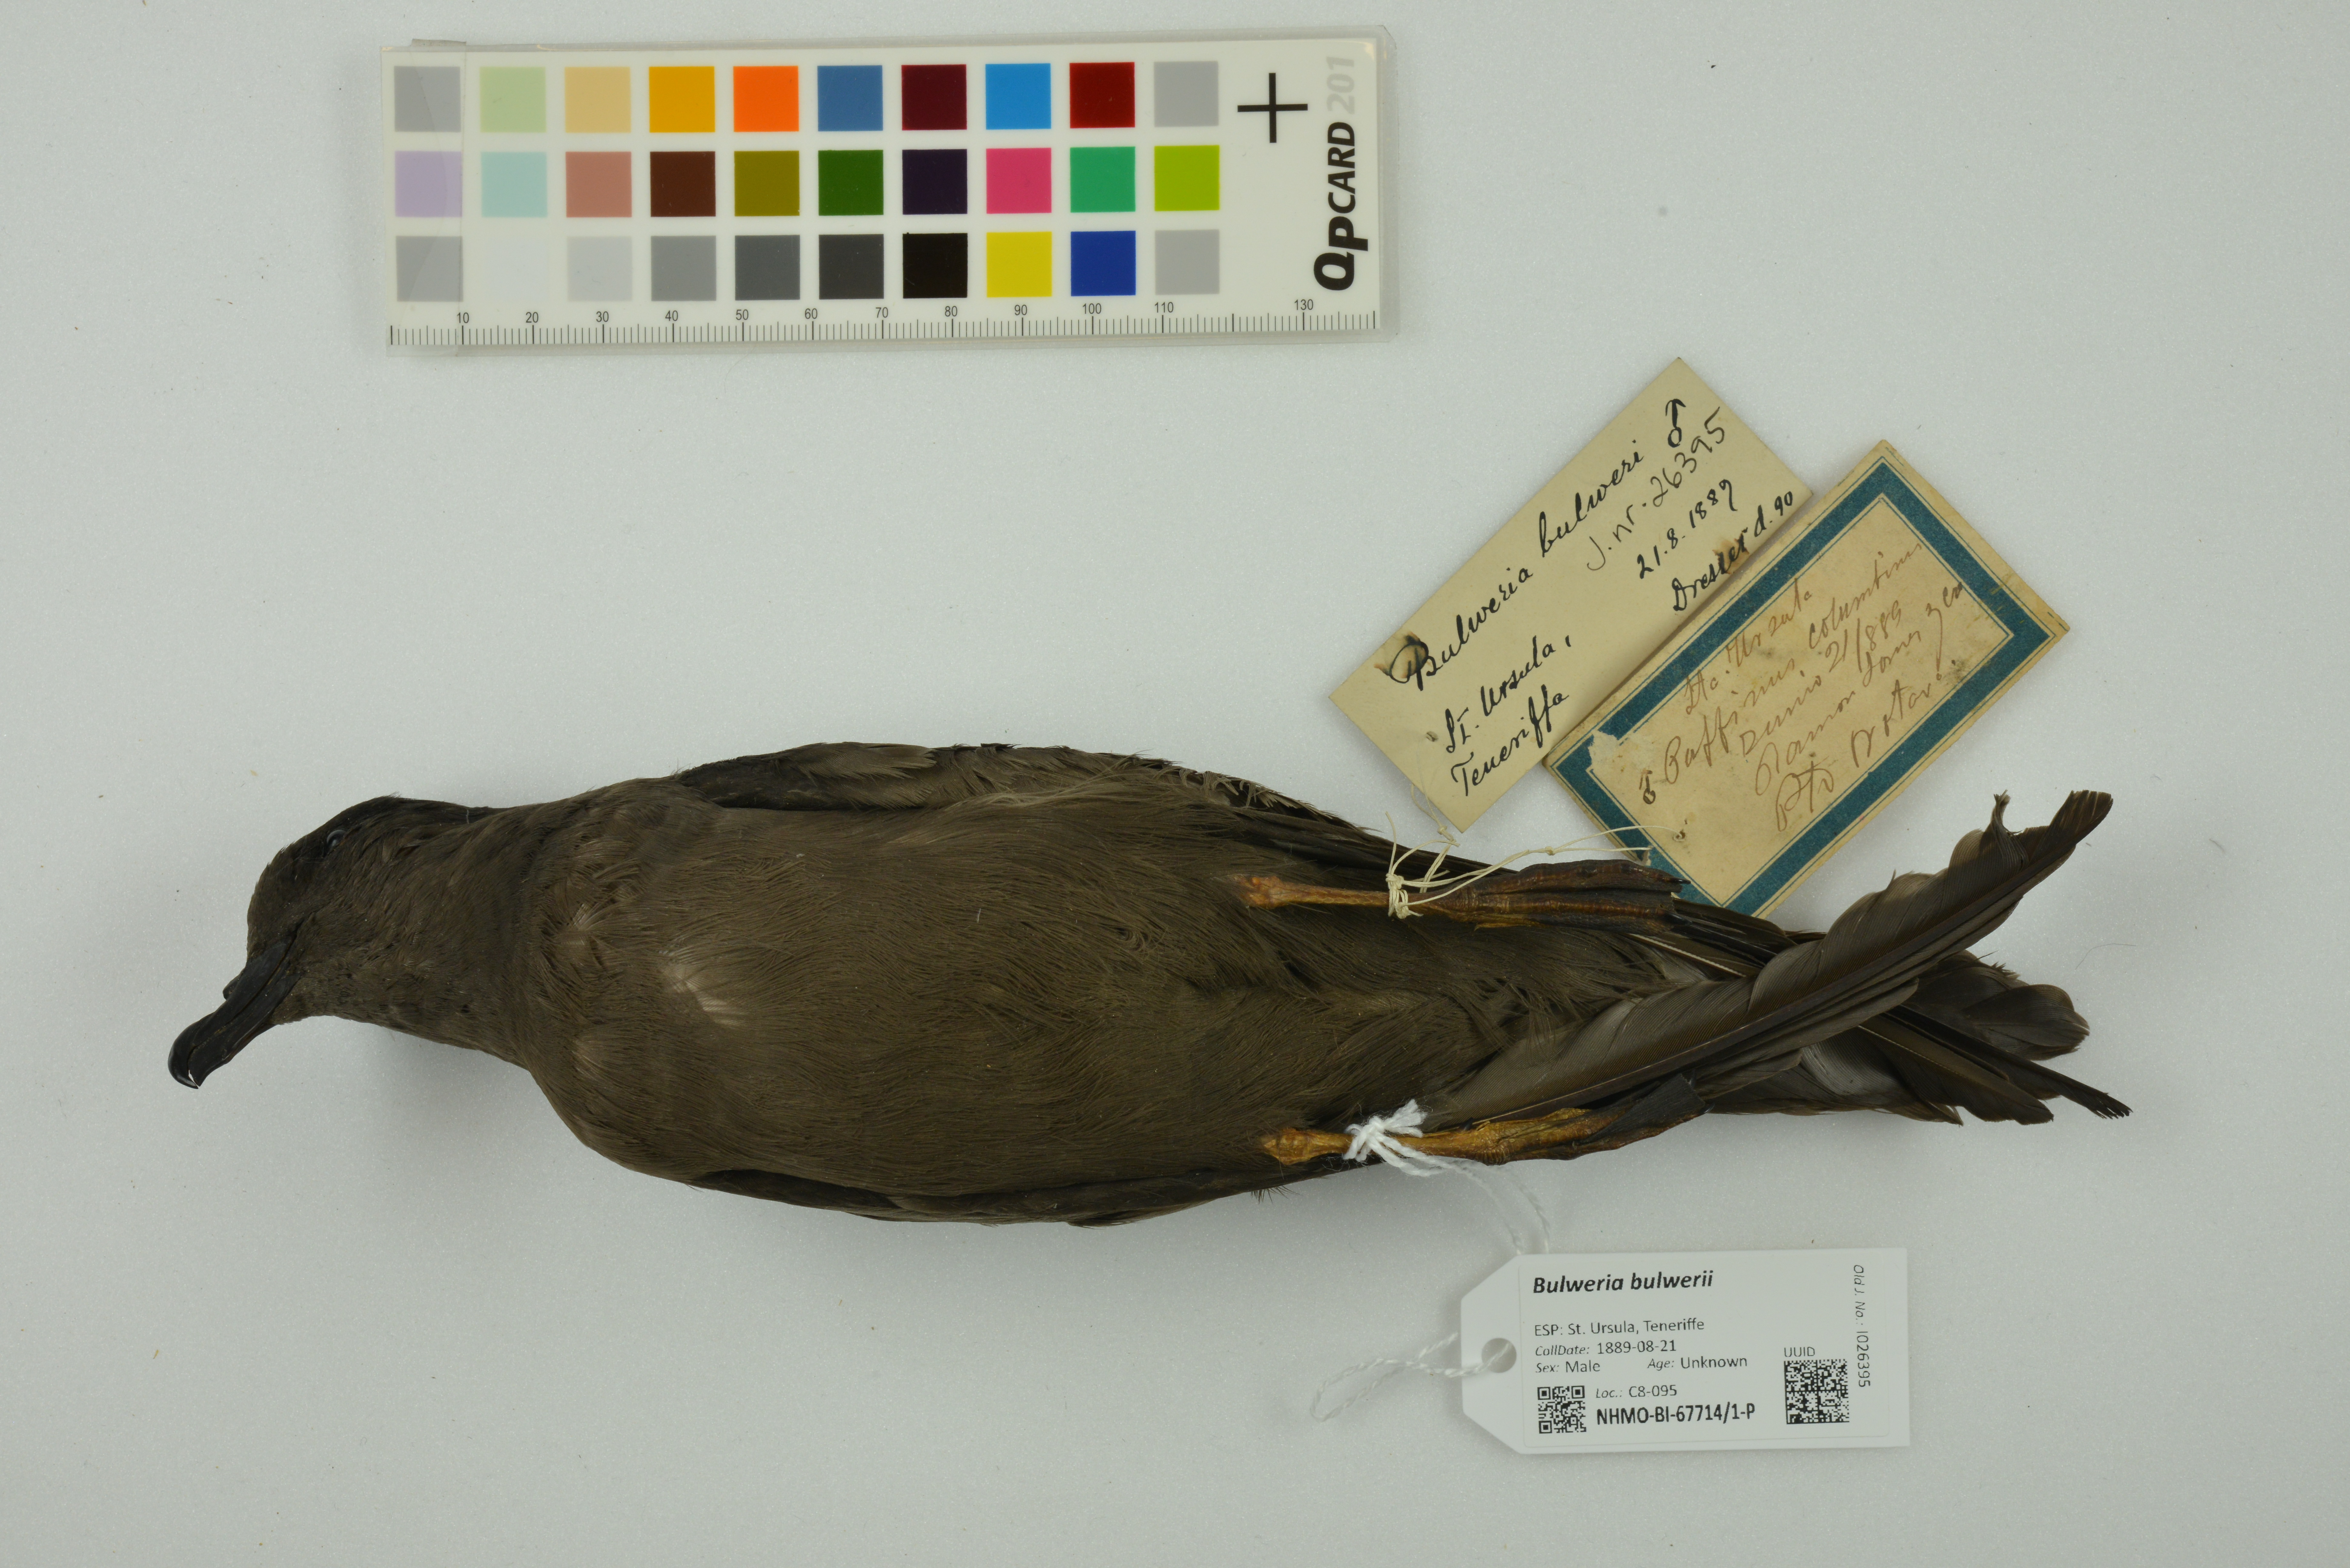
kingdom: Animalia
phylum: Chordata
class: Aves
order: Procellariiformes
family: Procellariidae
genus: Bulweria
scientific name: Bulweria bulwerii
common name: Bulwer's petrel
